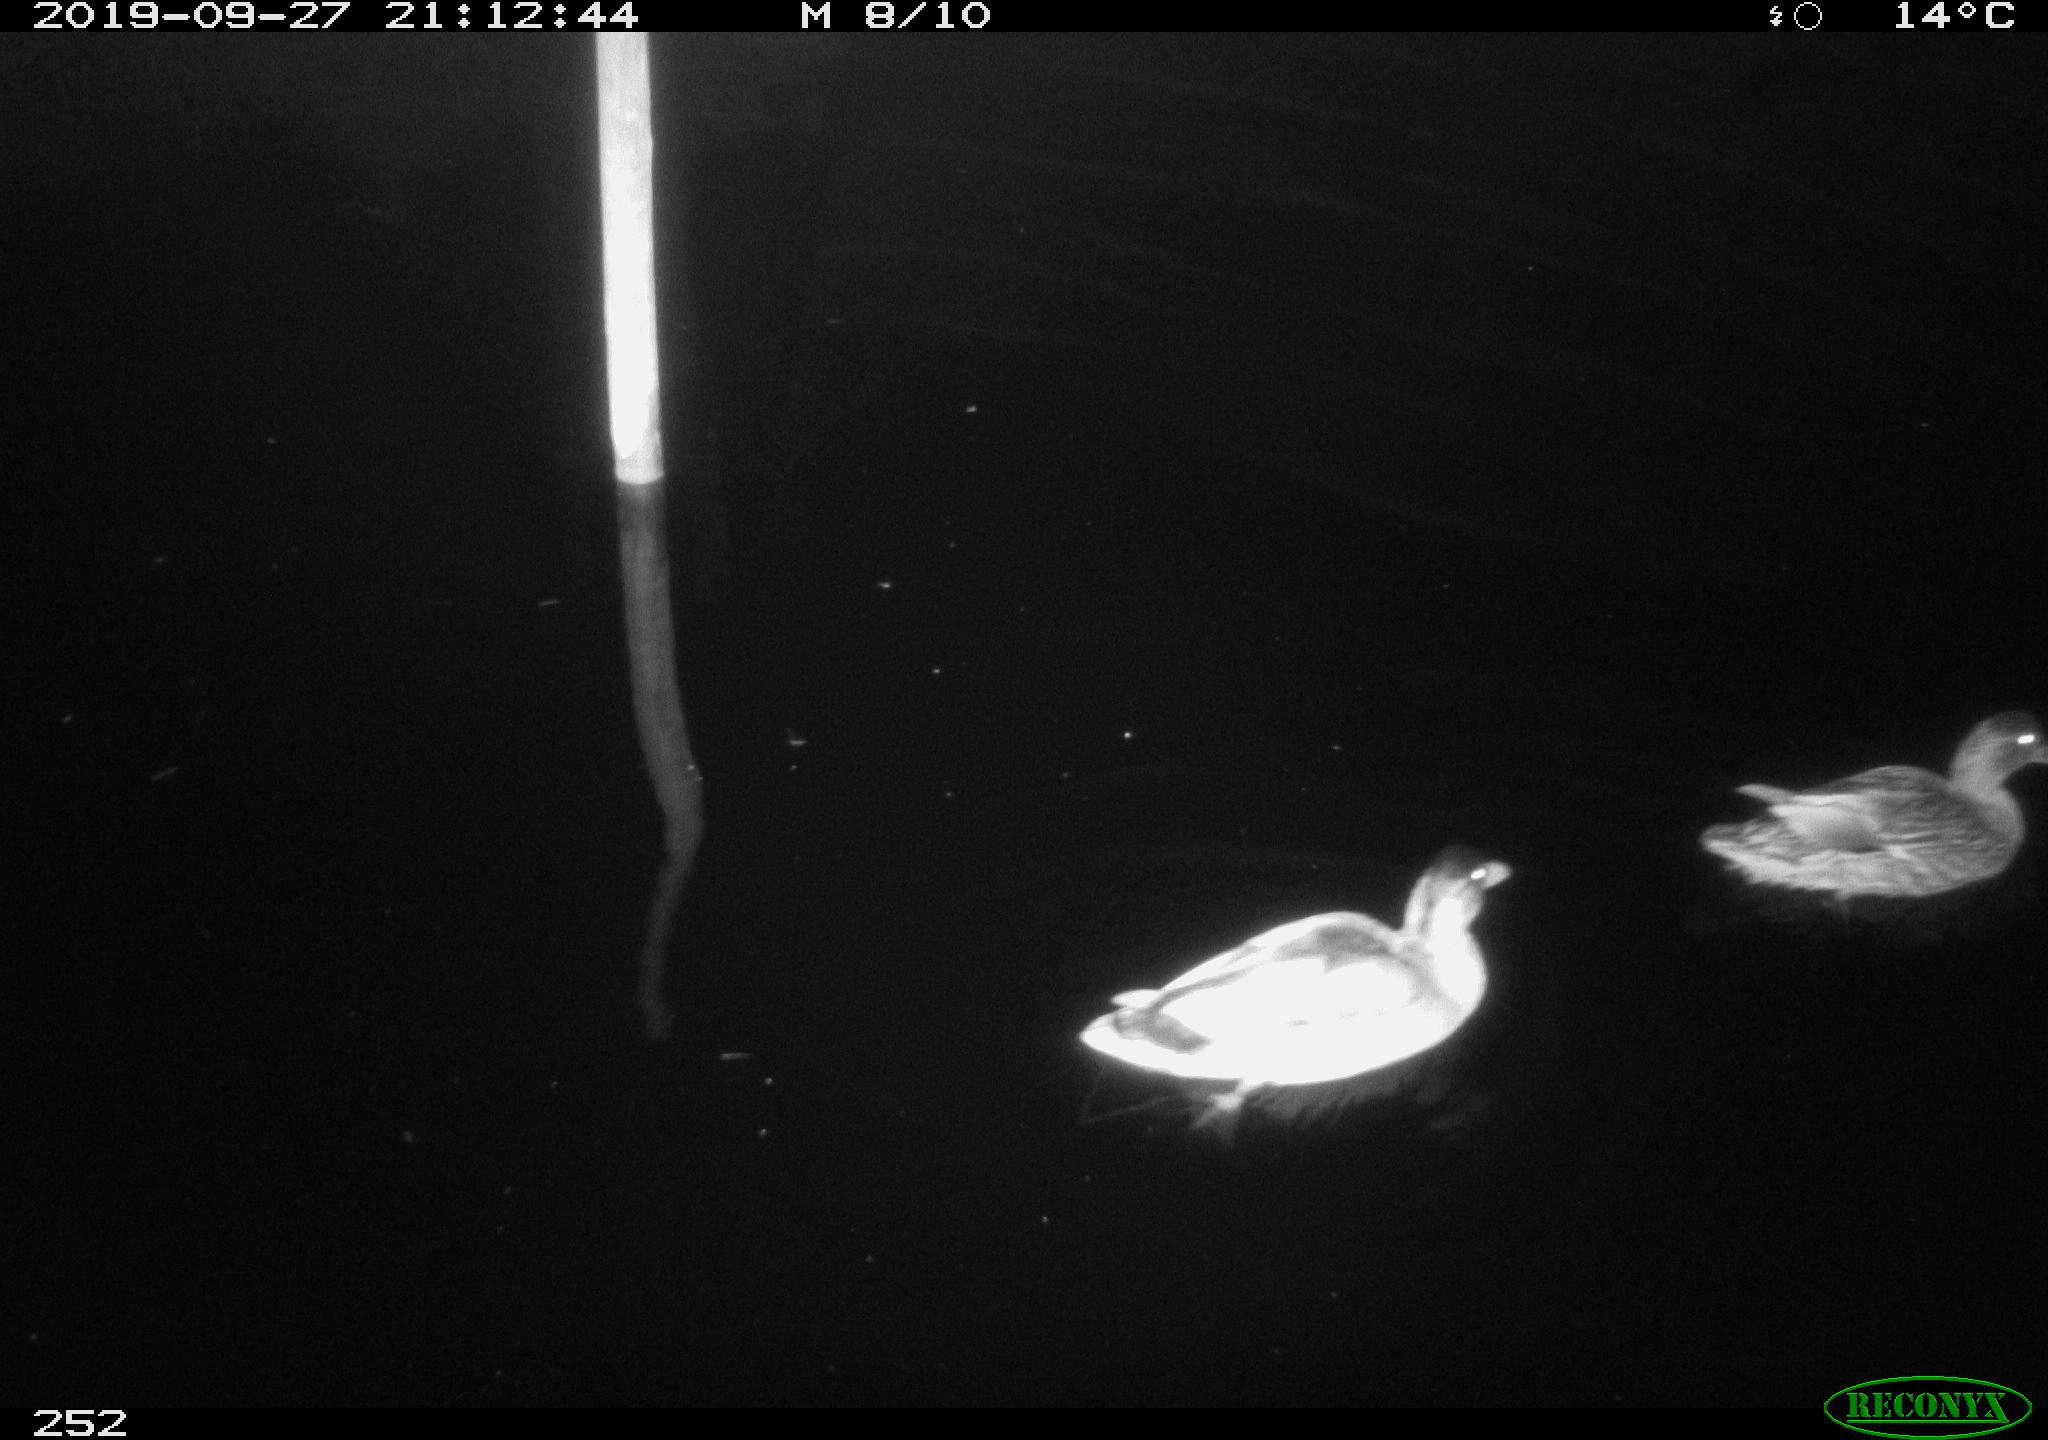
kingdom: Animalia
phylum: Chordata
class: Aves
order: Anseriformes
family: Anatidae
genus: Anas
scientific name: Anas platyrhynchos
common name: Mallard
